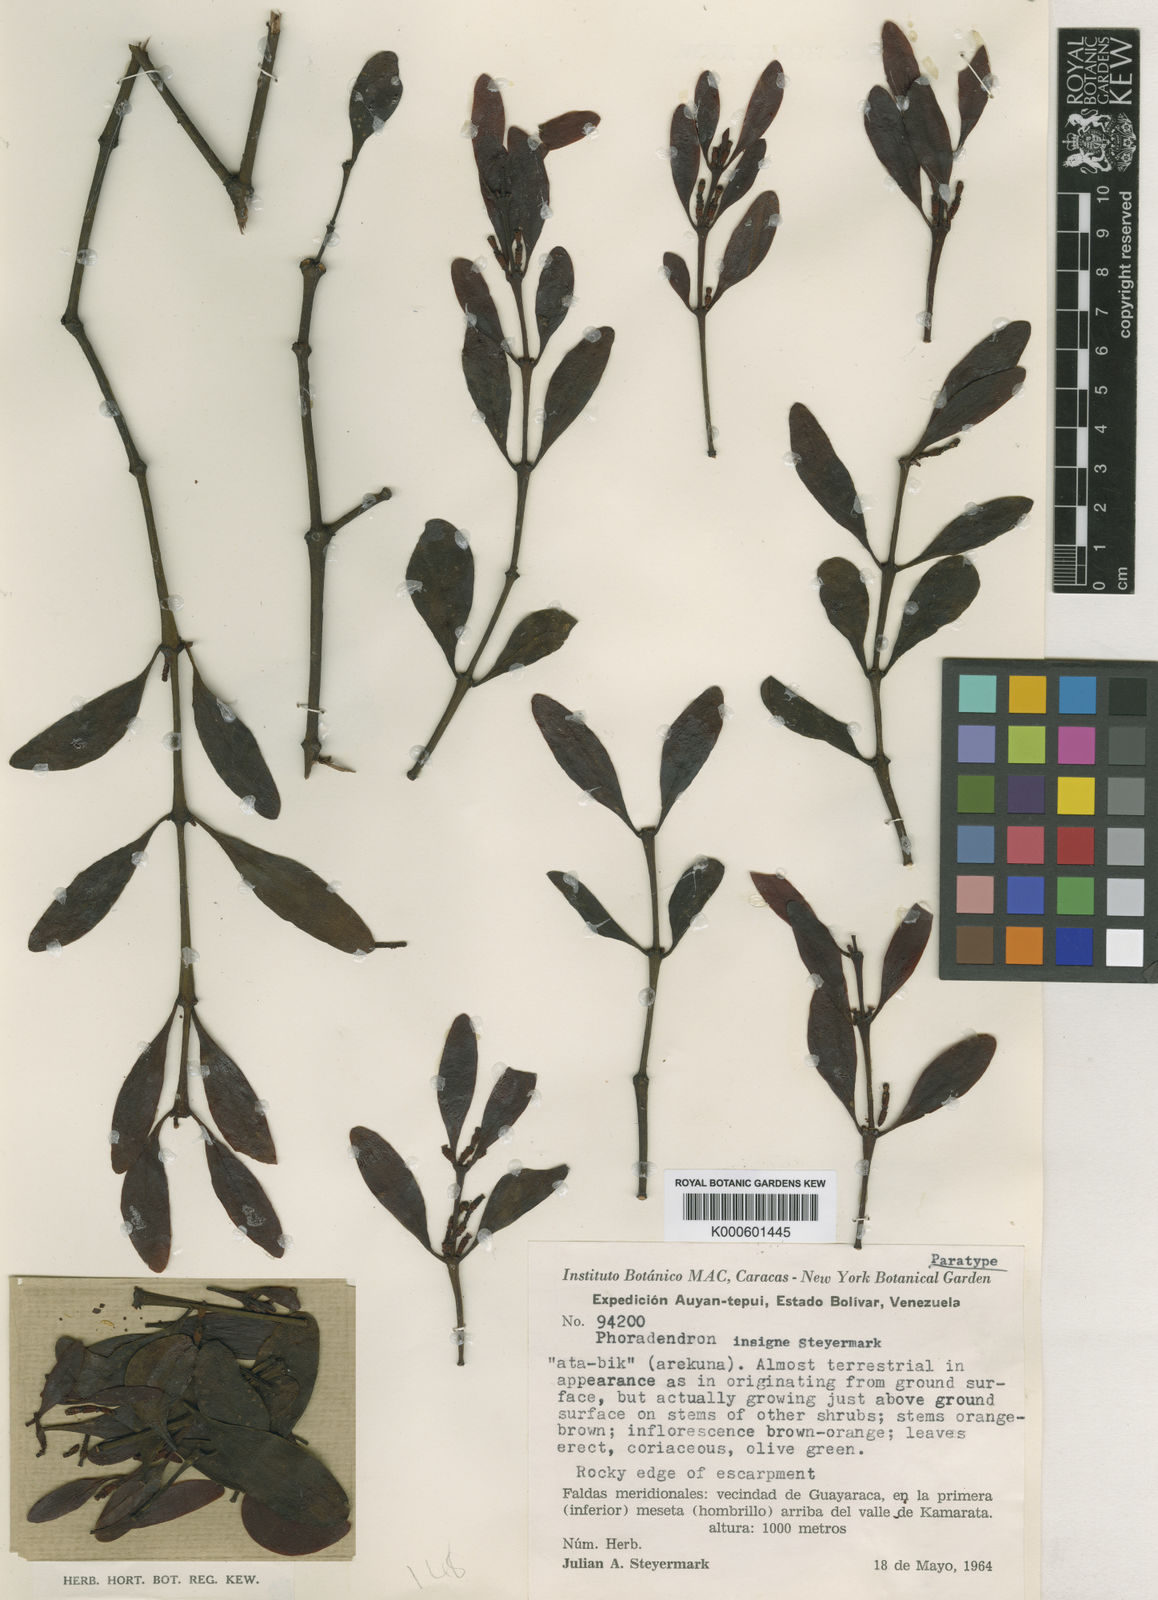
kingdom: Plantae
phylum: Tracheophyta
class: Magnoliopsida
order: Santalales
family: Viscaceae
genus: Phoradendron
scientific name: Phoradendron pellucidulum
